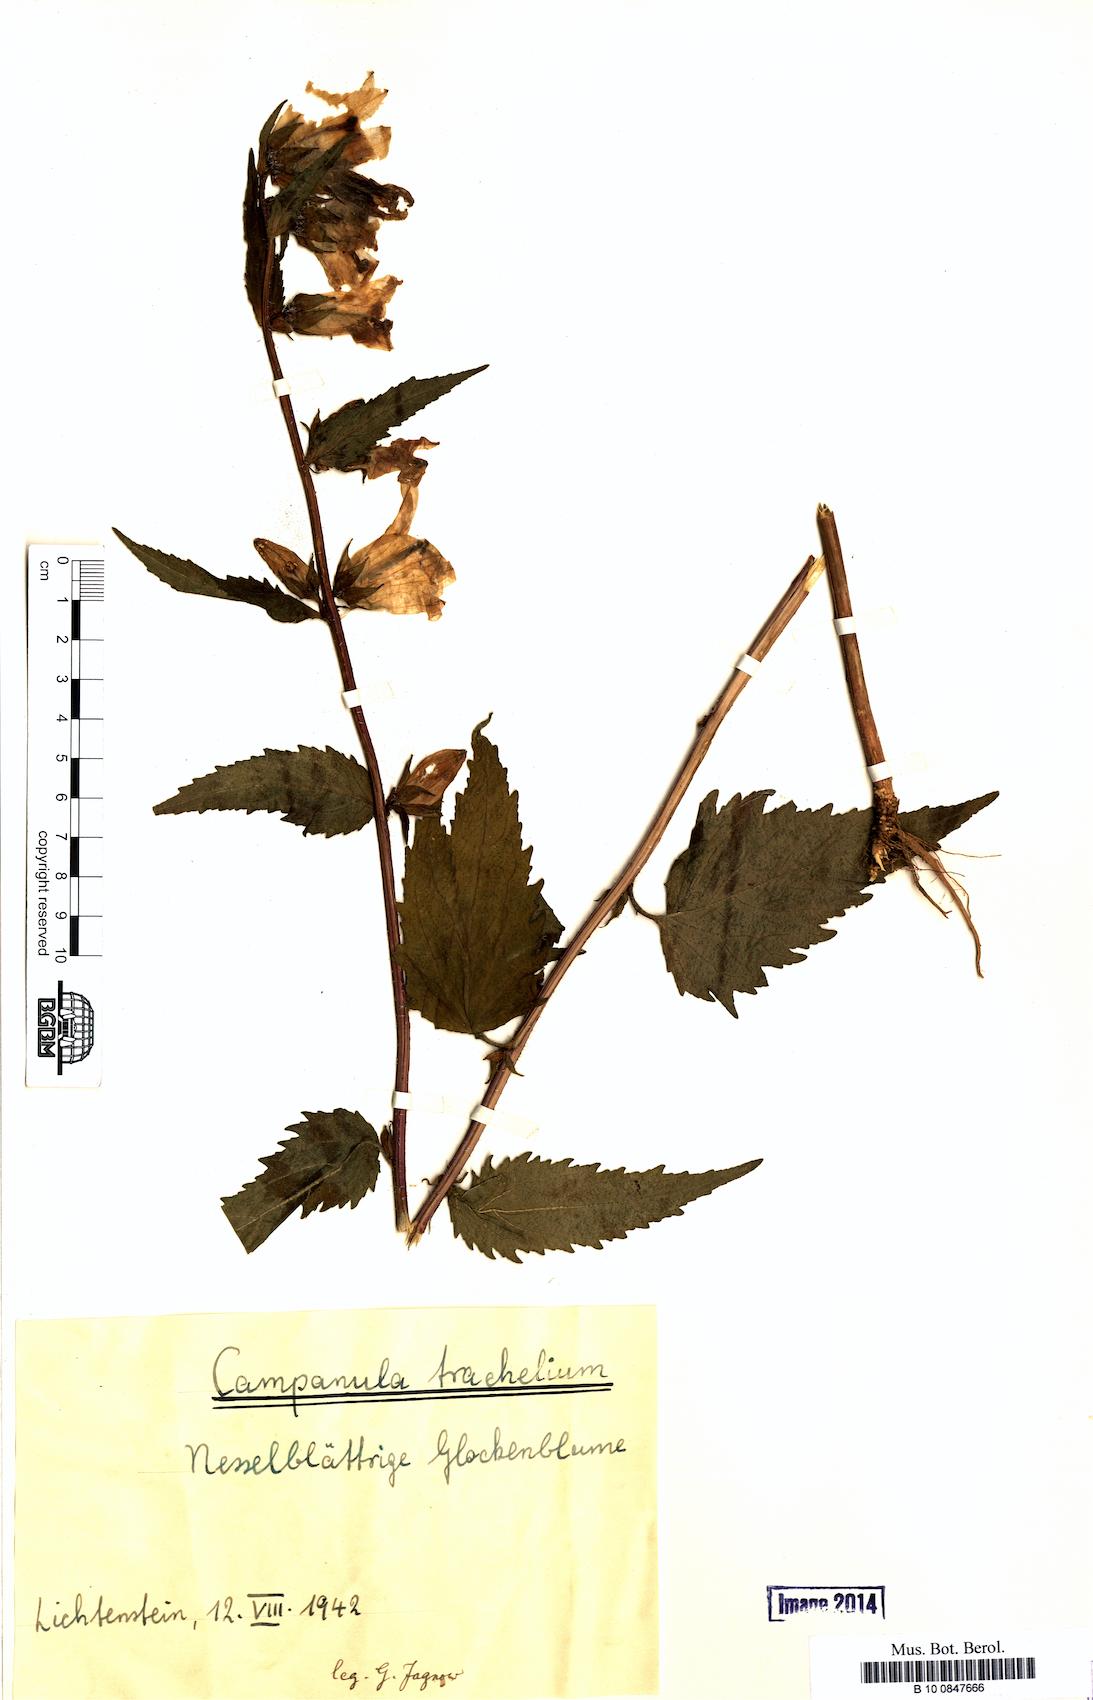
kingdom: Plantae
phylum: Tracheophyta
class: Magnoliopsida
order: Asterales
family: Campanulaceae
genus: Campanula
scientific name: Campanula trachelium
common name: Nettle-leaved bellflower
